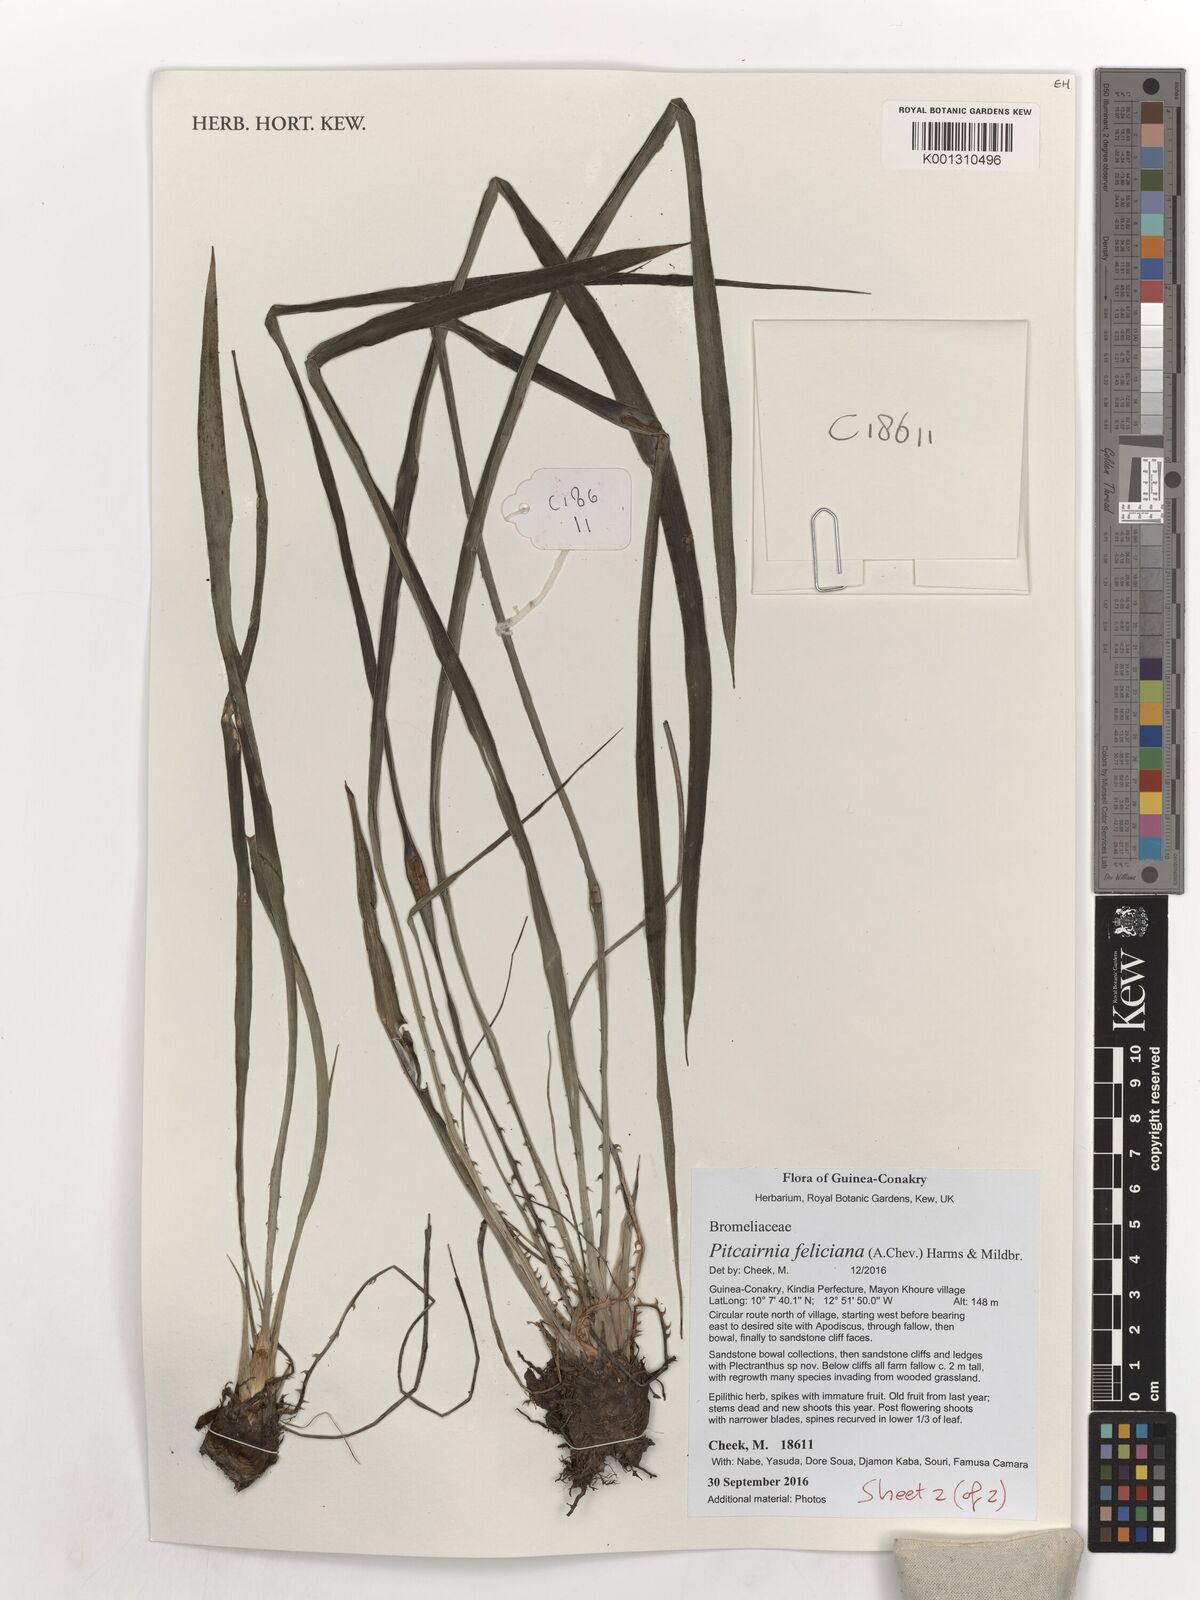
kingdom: Plantae
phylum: Tracheophyta
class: Liliopsida
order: Poales
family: Bromeliaceae
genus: Pitcairnia
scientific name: Pitcairnia feliciana
